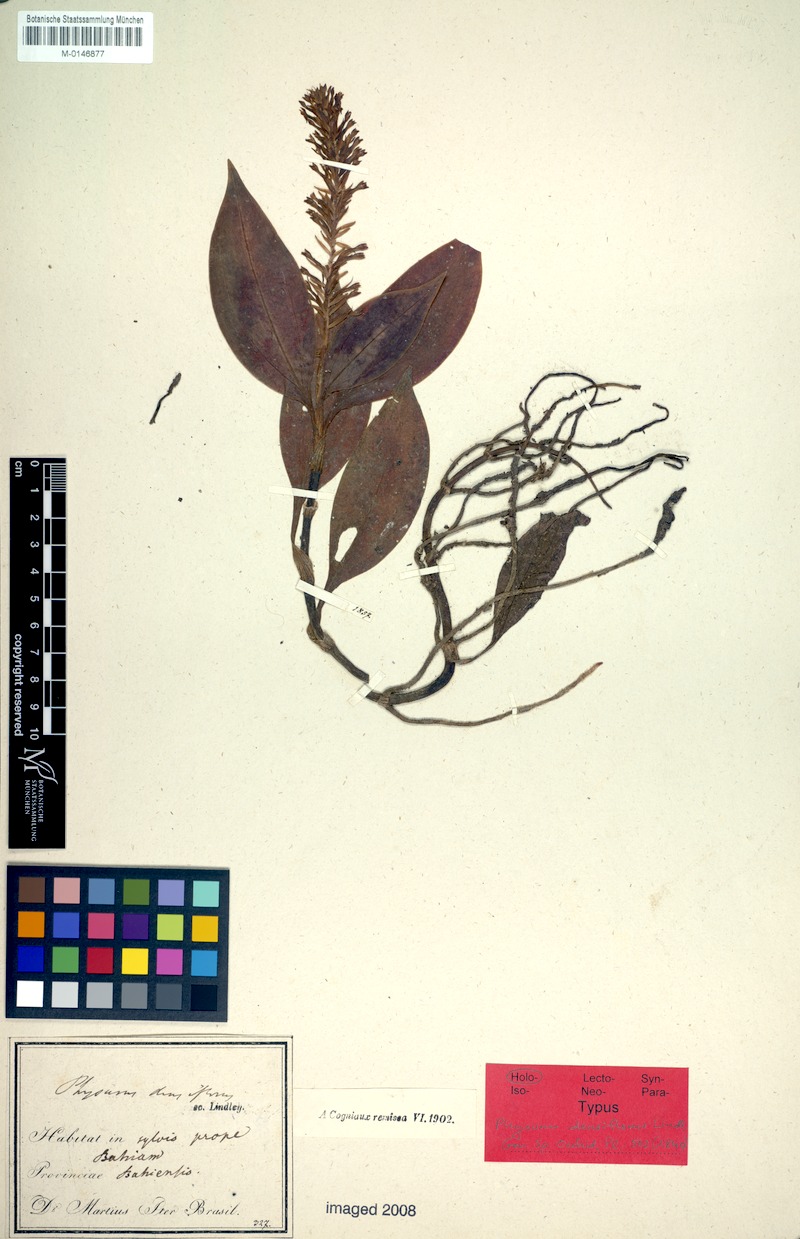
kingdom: Plantae
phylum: Tracheophyta
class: Liliopsida
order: Asparagales
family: Orchidaceae
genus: Aspidogyne
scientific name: Aspidogyne foliosa
